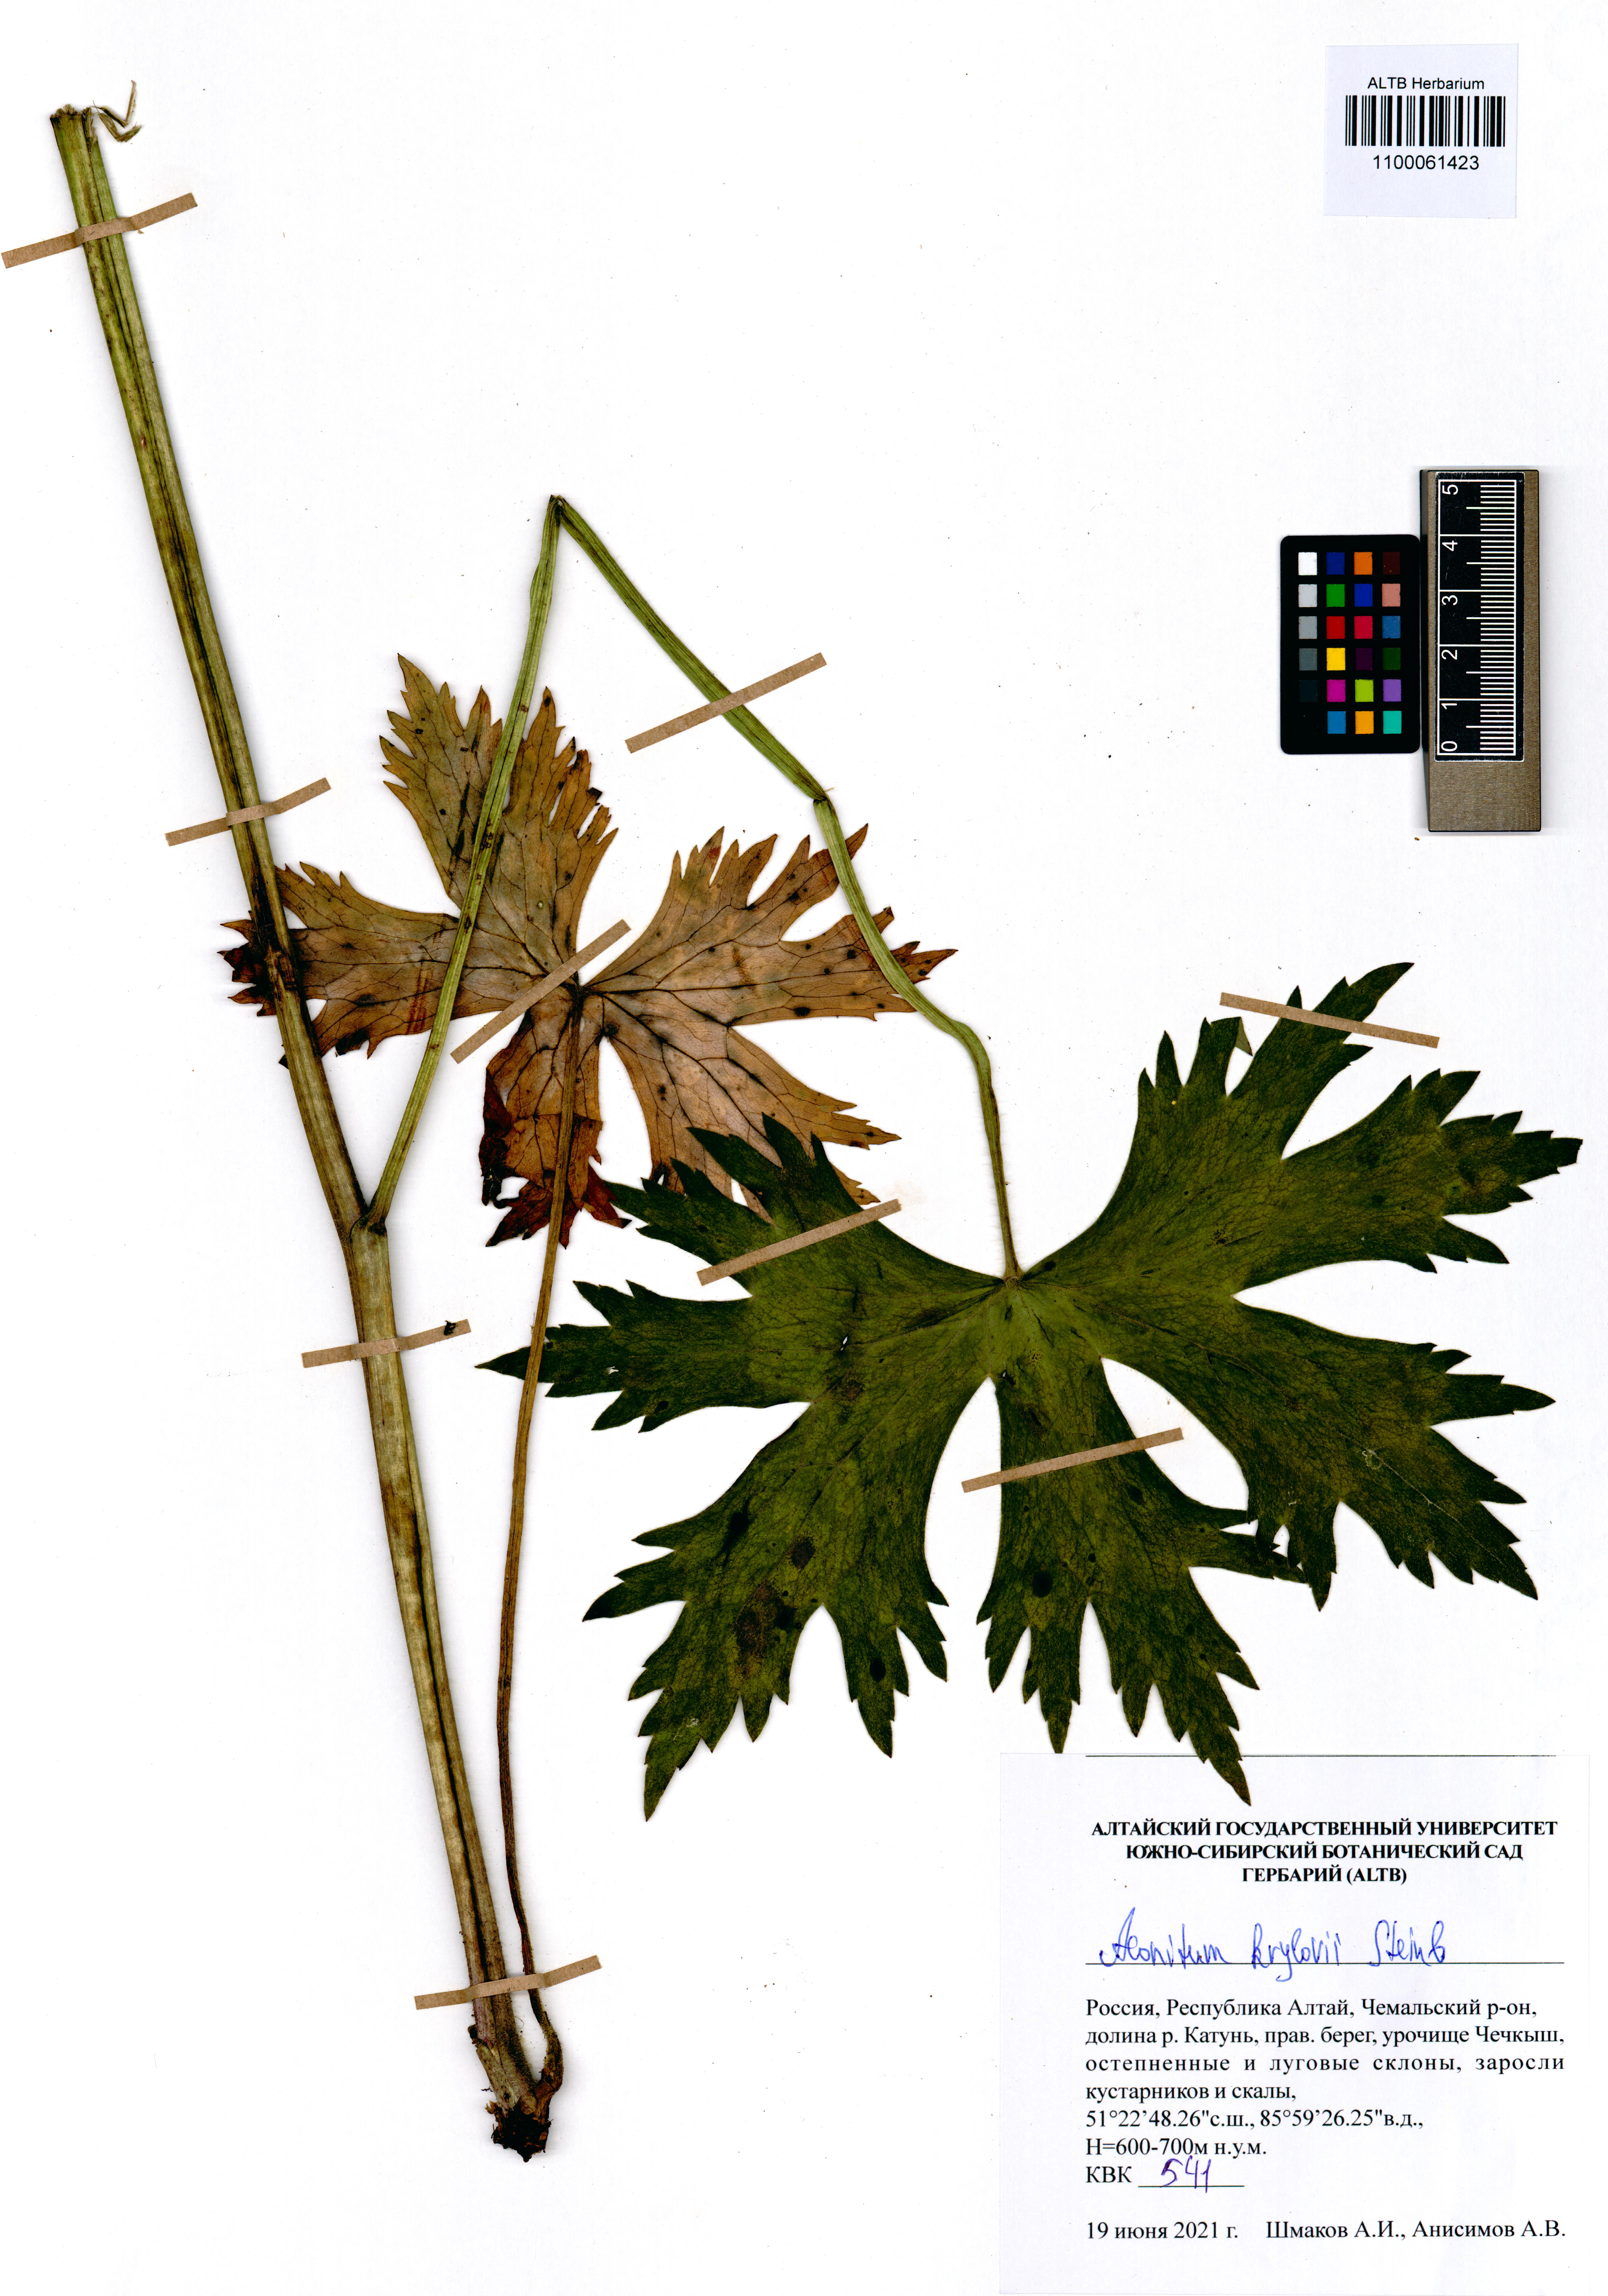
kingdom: Plantae
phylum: Tracheophyta
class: Magnoliopsida
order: Ranunculales
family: Ranunculaceae
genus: Aconitum
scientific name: Aconitum krylovii
